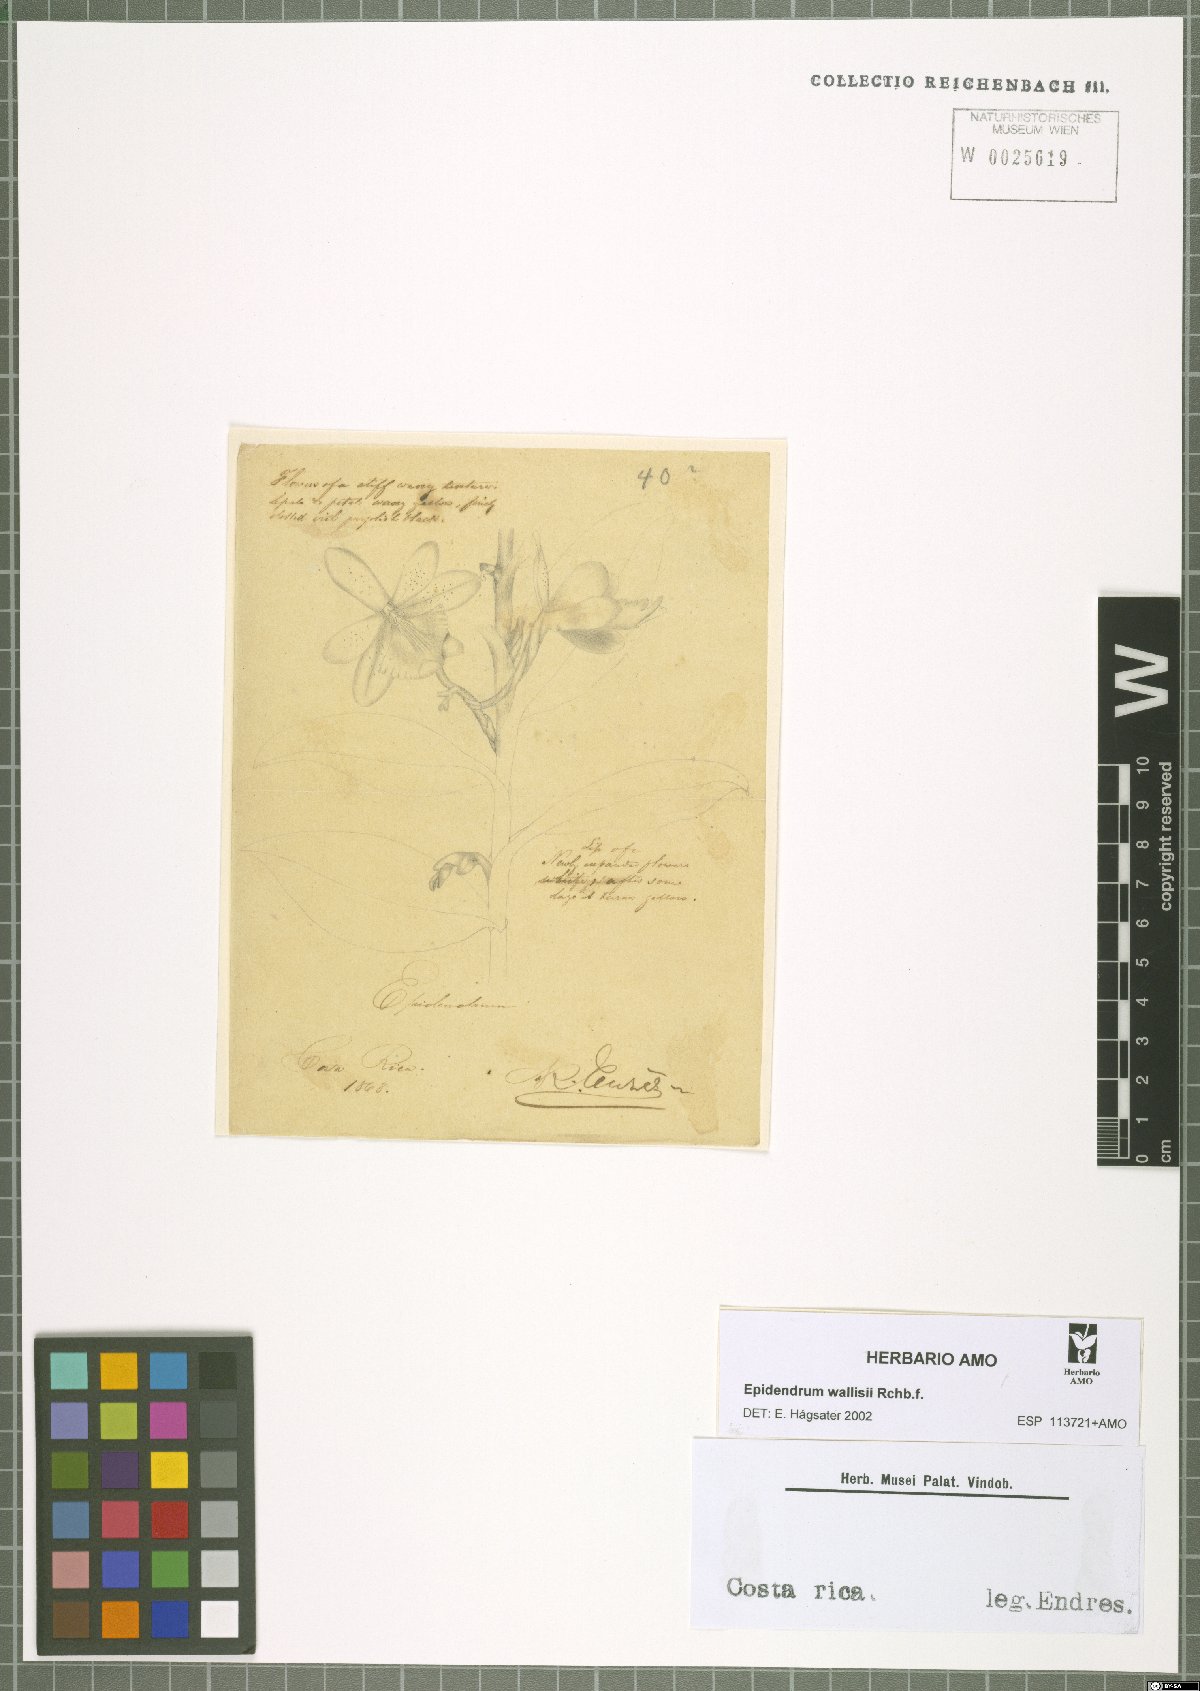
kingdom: Plantae
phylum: Tracheophyta
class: Liliopsida
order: Asparagales
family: Orchidaceae
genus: Epidendrum
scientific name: Epidendrum wallisii
